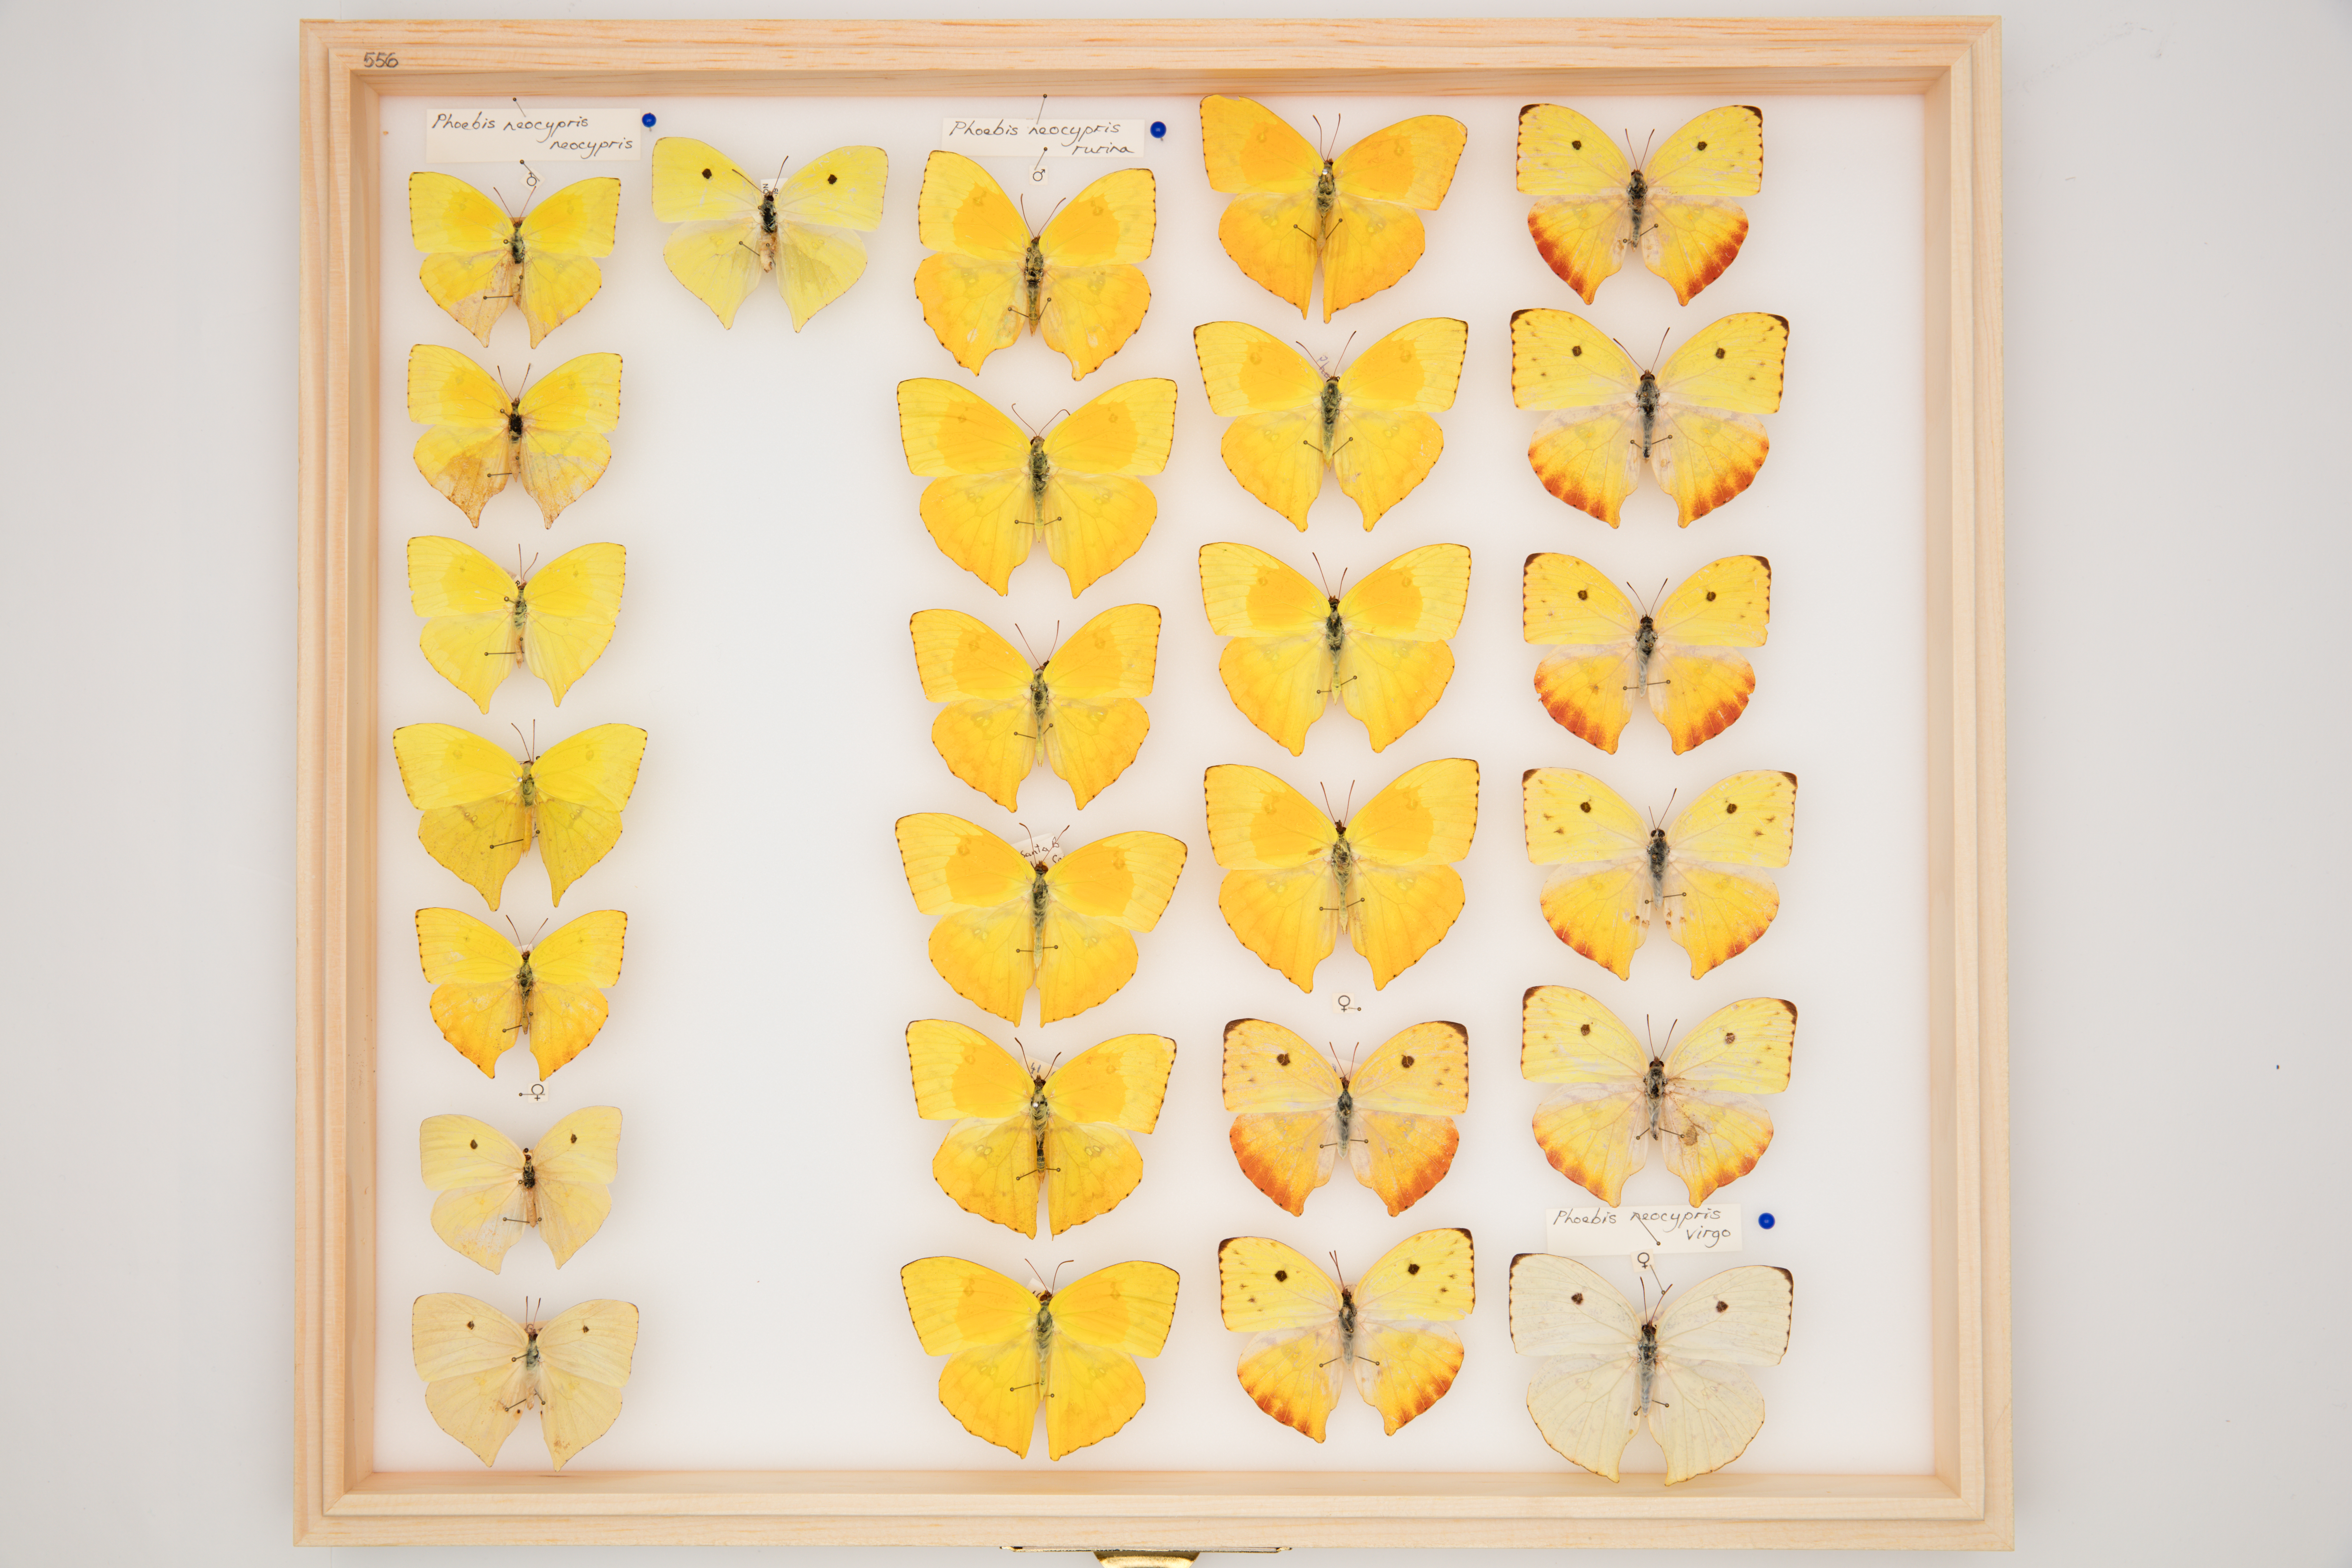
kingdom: Animalia
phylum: Arthropoda
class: Insecta
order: Lepidoptera
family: Pieridae
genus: Phoebis
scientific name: Phoebis neocypris
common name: Tailed sulphur
